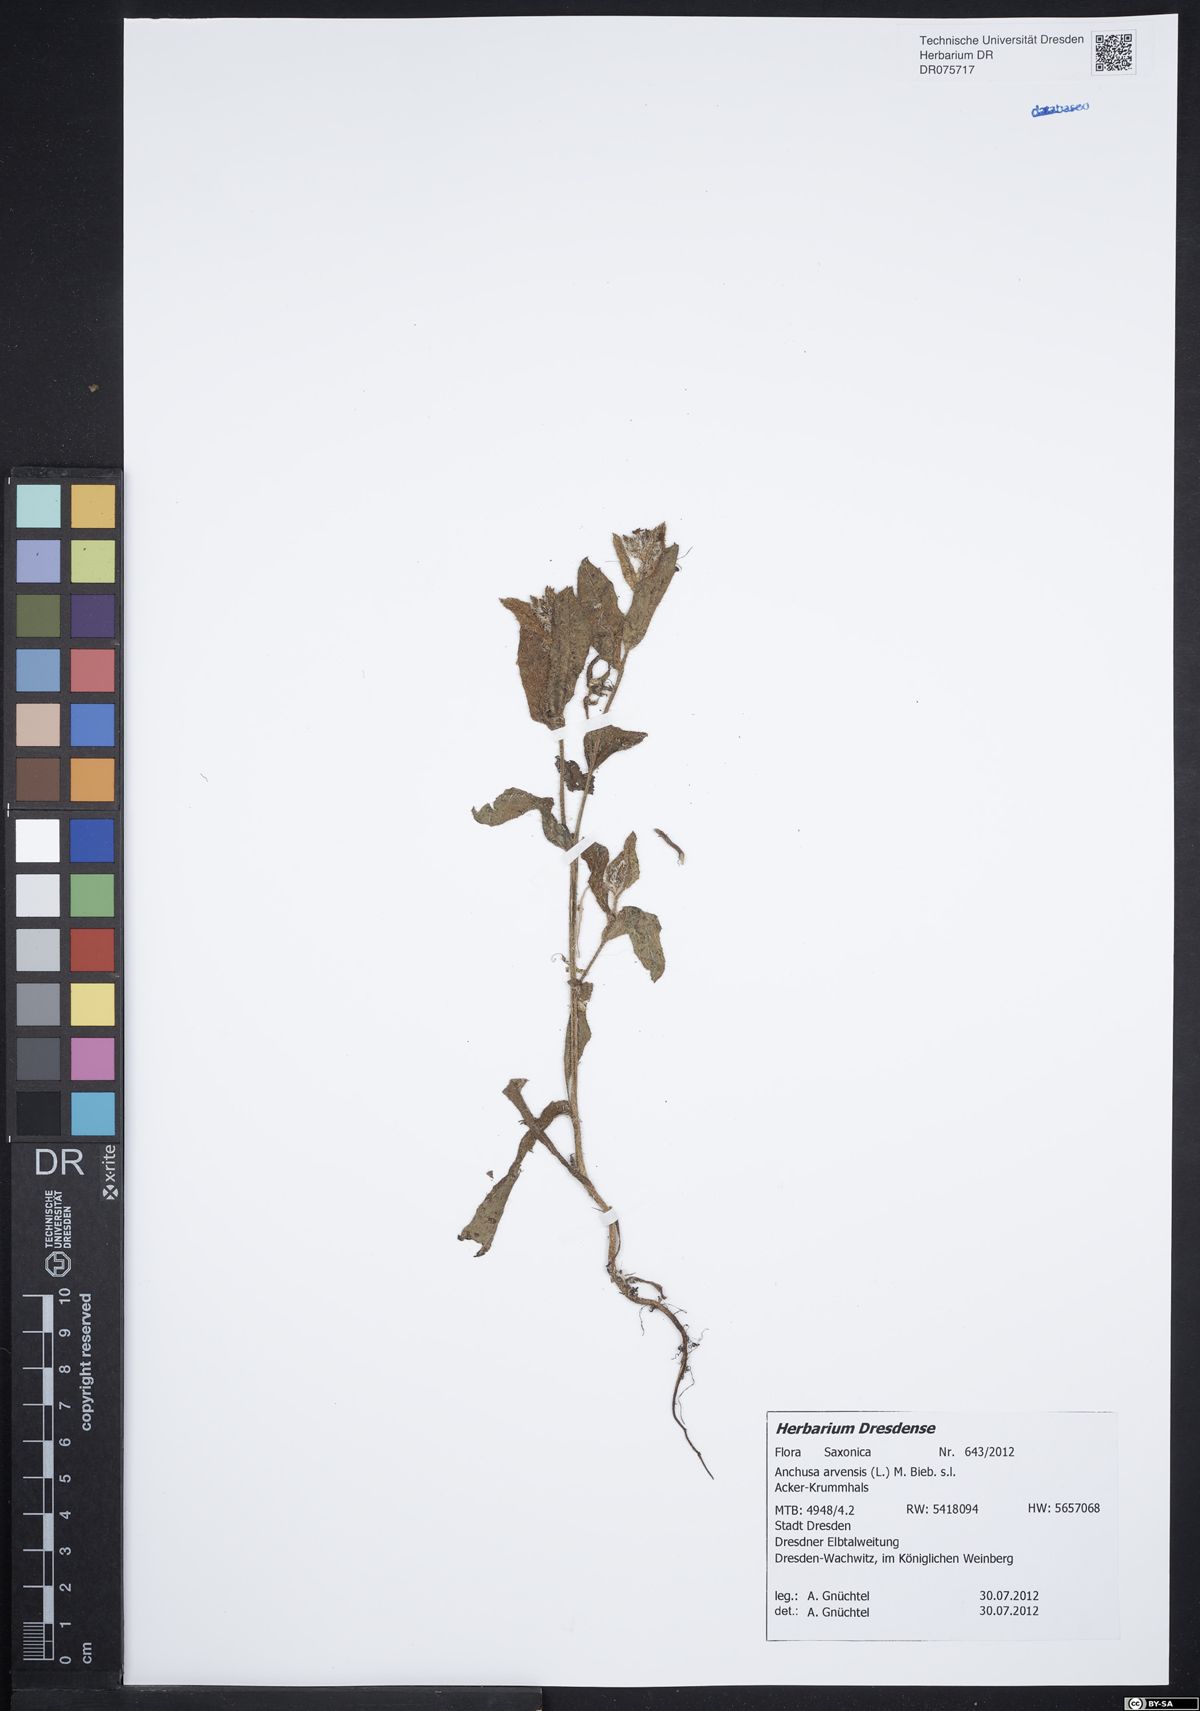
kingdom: Plantae
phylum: Tracheophyta
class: Magnoliopsida
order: Boraginales
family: Boraginaceae
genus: Lycopsis
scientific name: Lycopsis arvensis
